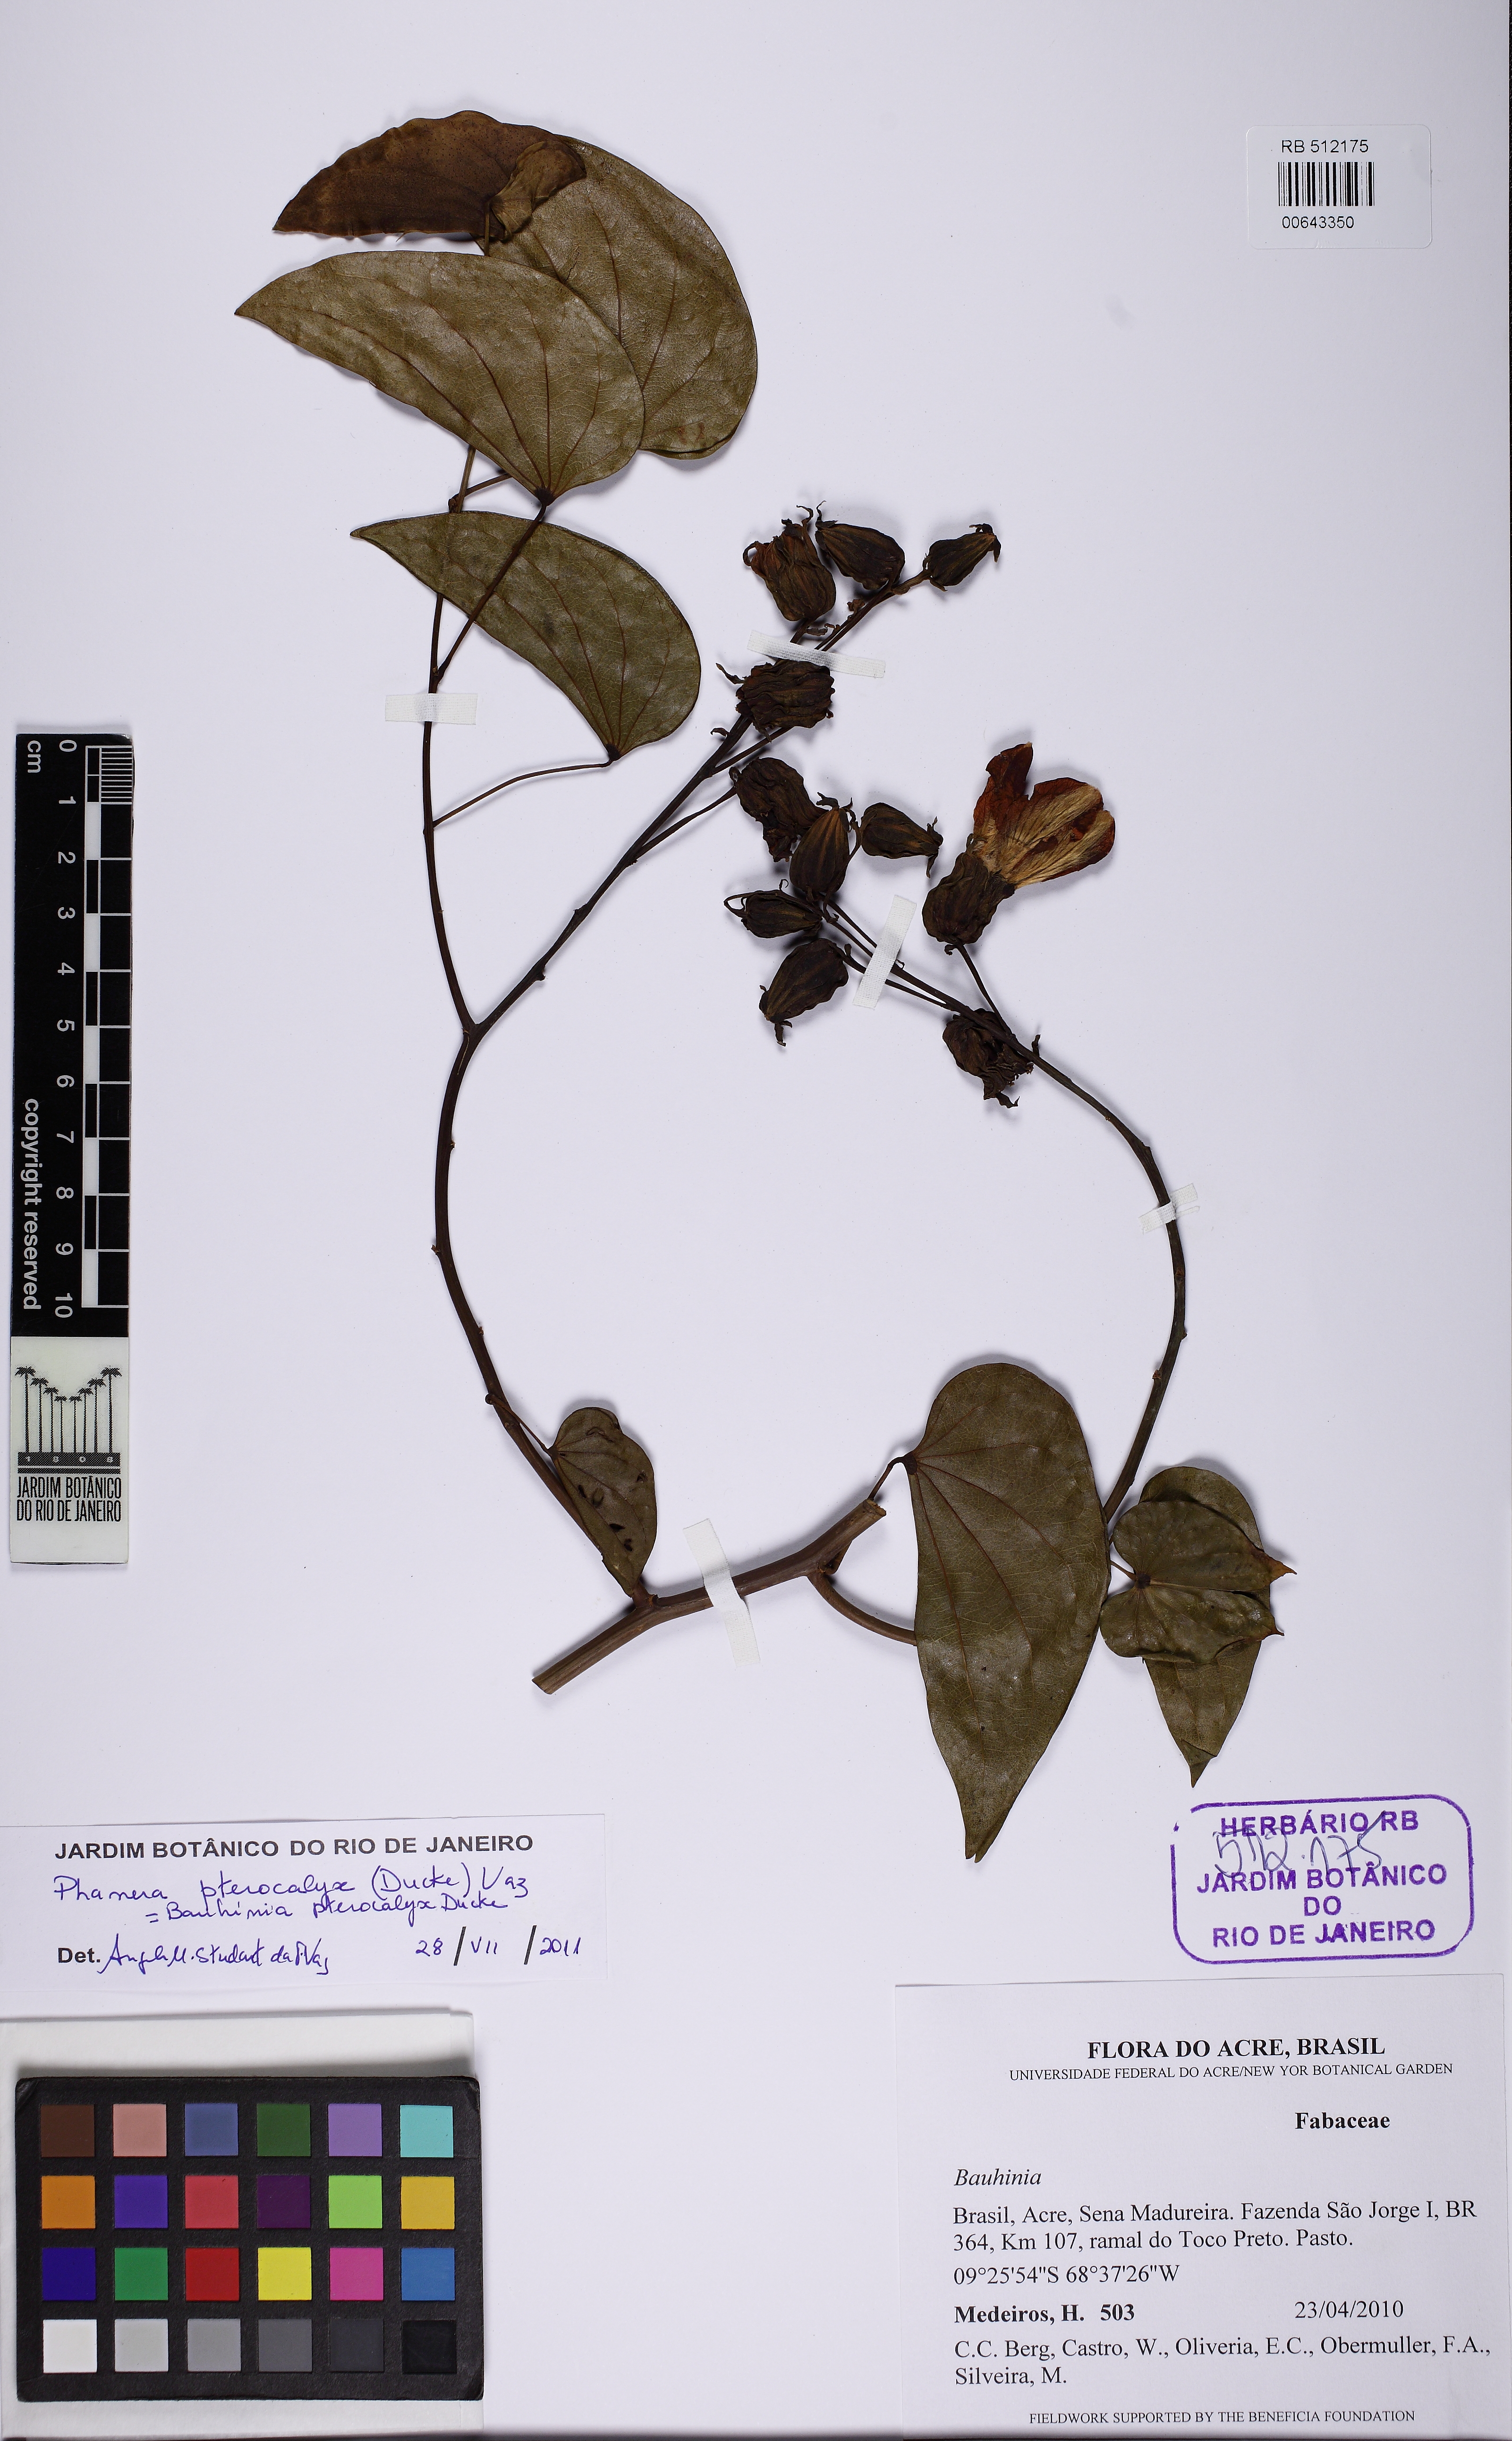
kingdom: Plantae
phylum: Tracheophyta
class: Magnoliopsida
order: Fabales
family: Fabaceae
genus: Schnella
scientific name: Schnella pterocalyx
